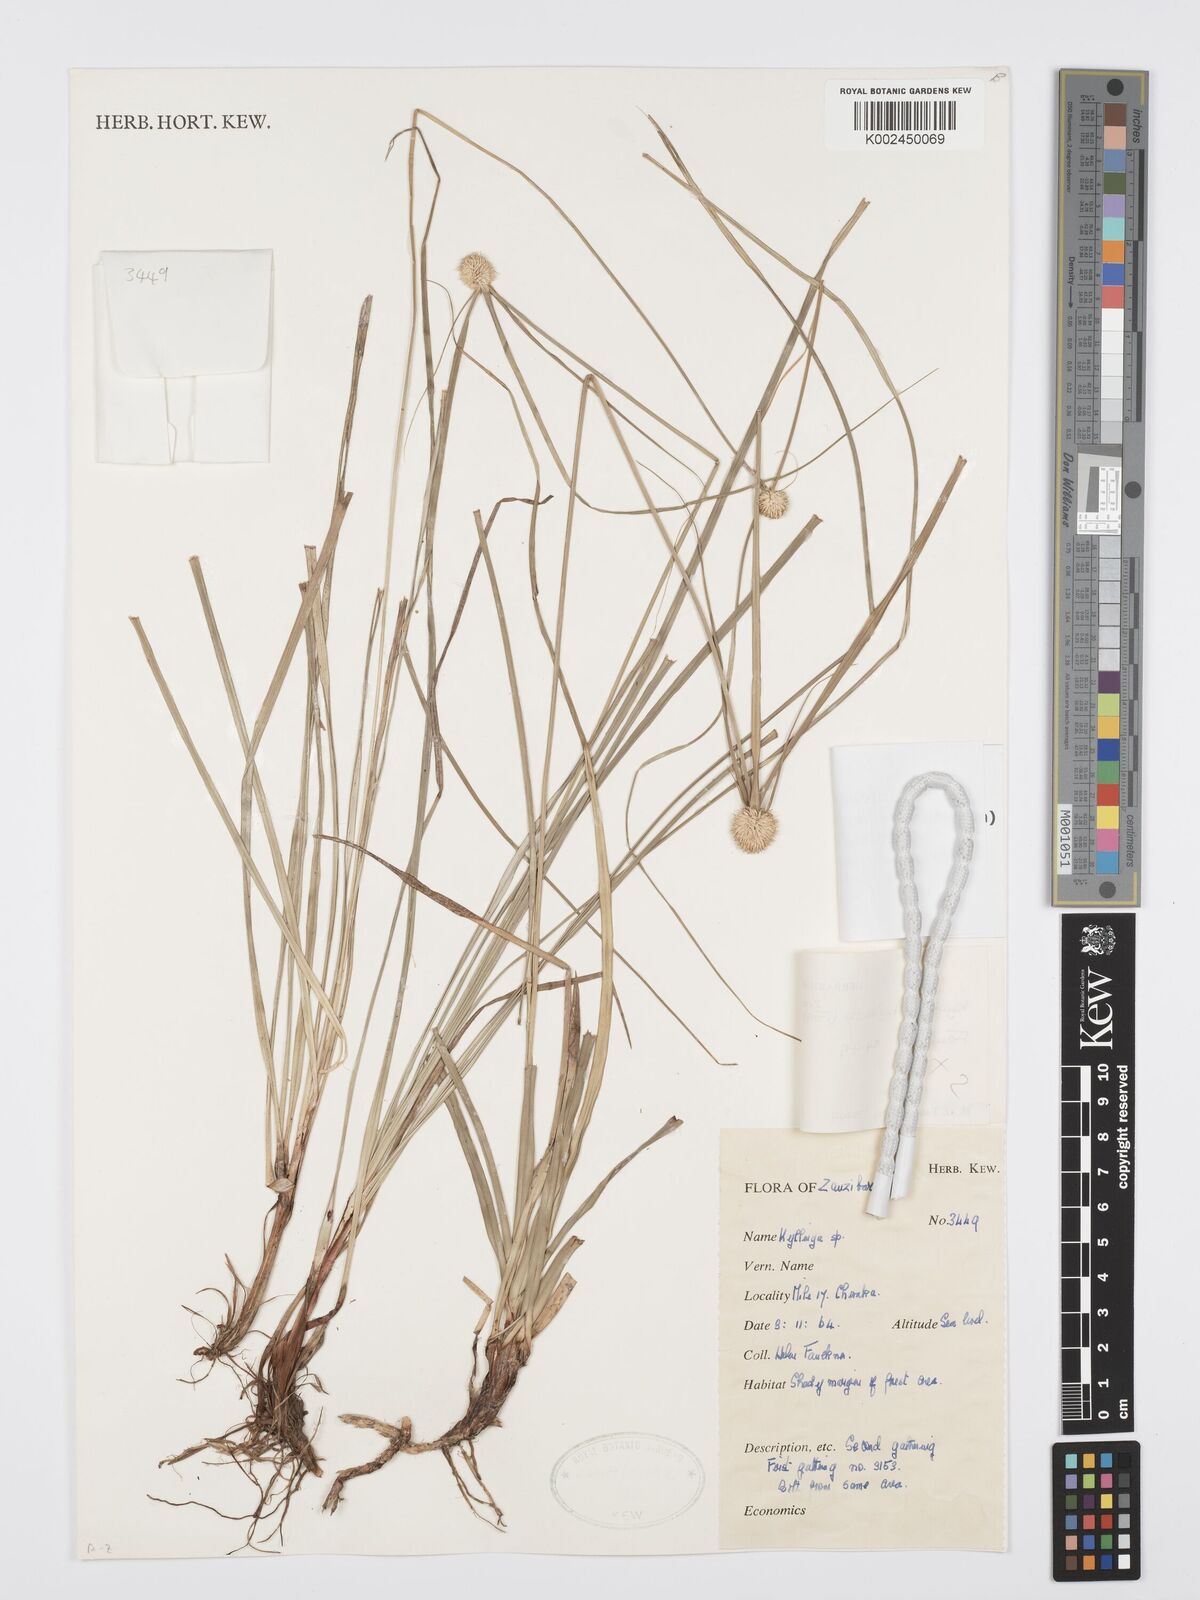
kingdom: Plantae
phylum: Tracheophyta
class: Liliopsida
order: Poales
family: Cyperaceae
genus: Cyperus
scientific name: Cyperus cartilagineus
